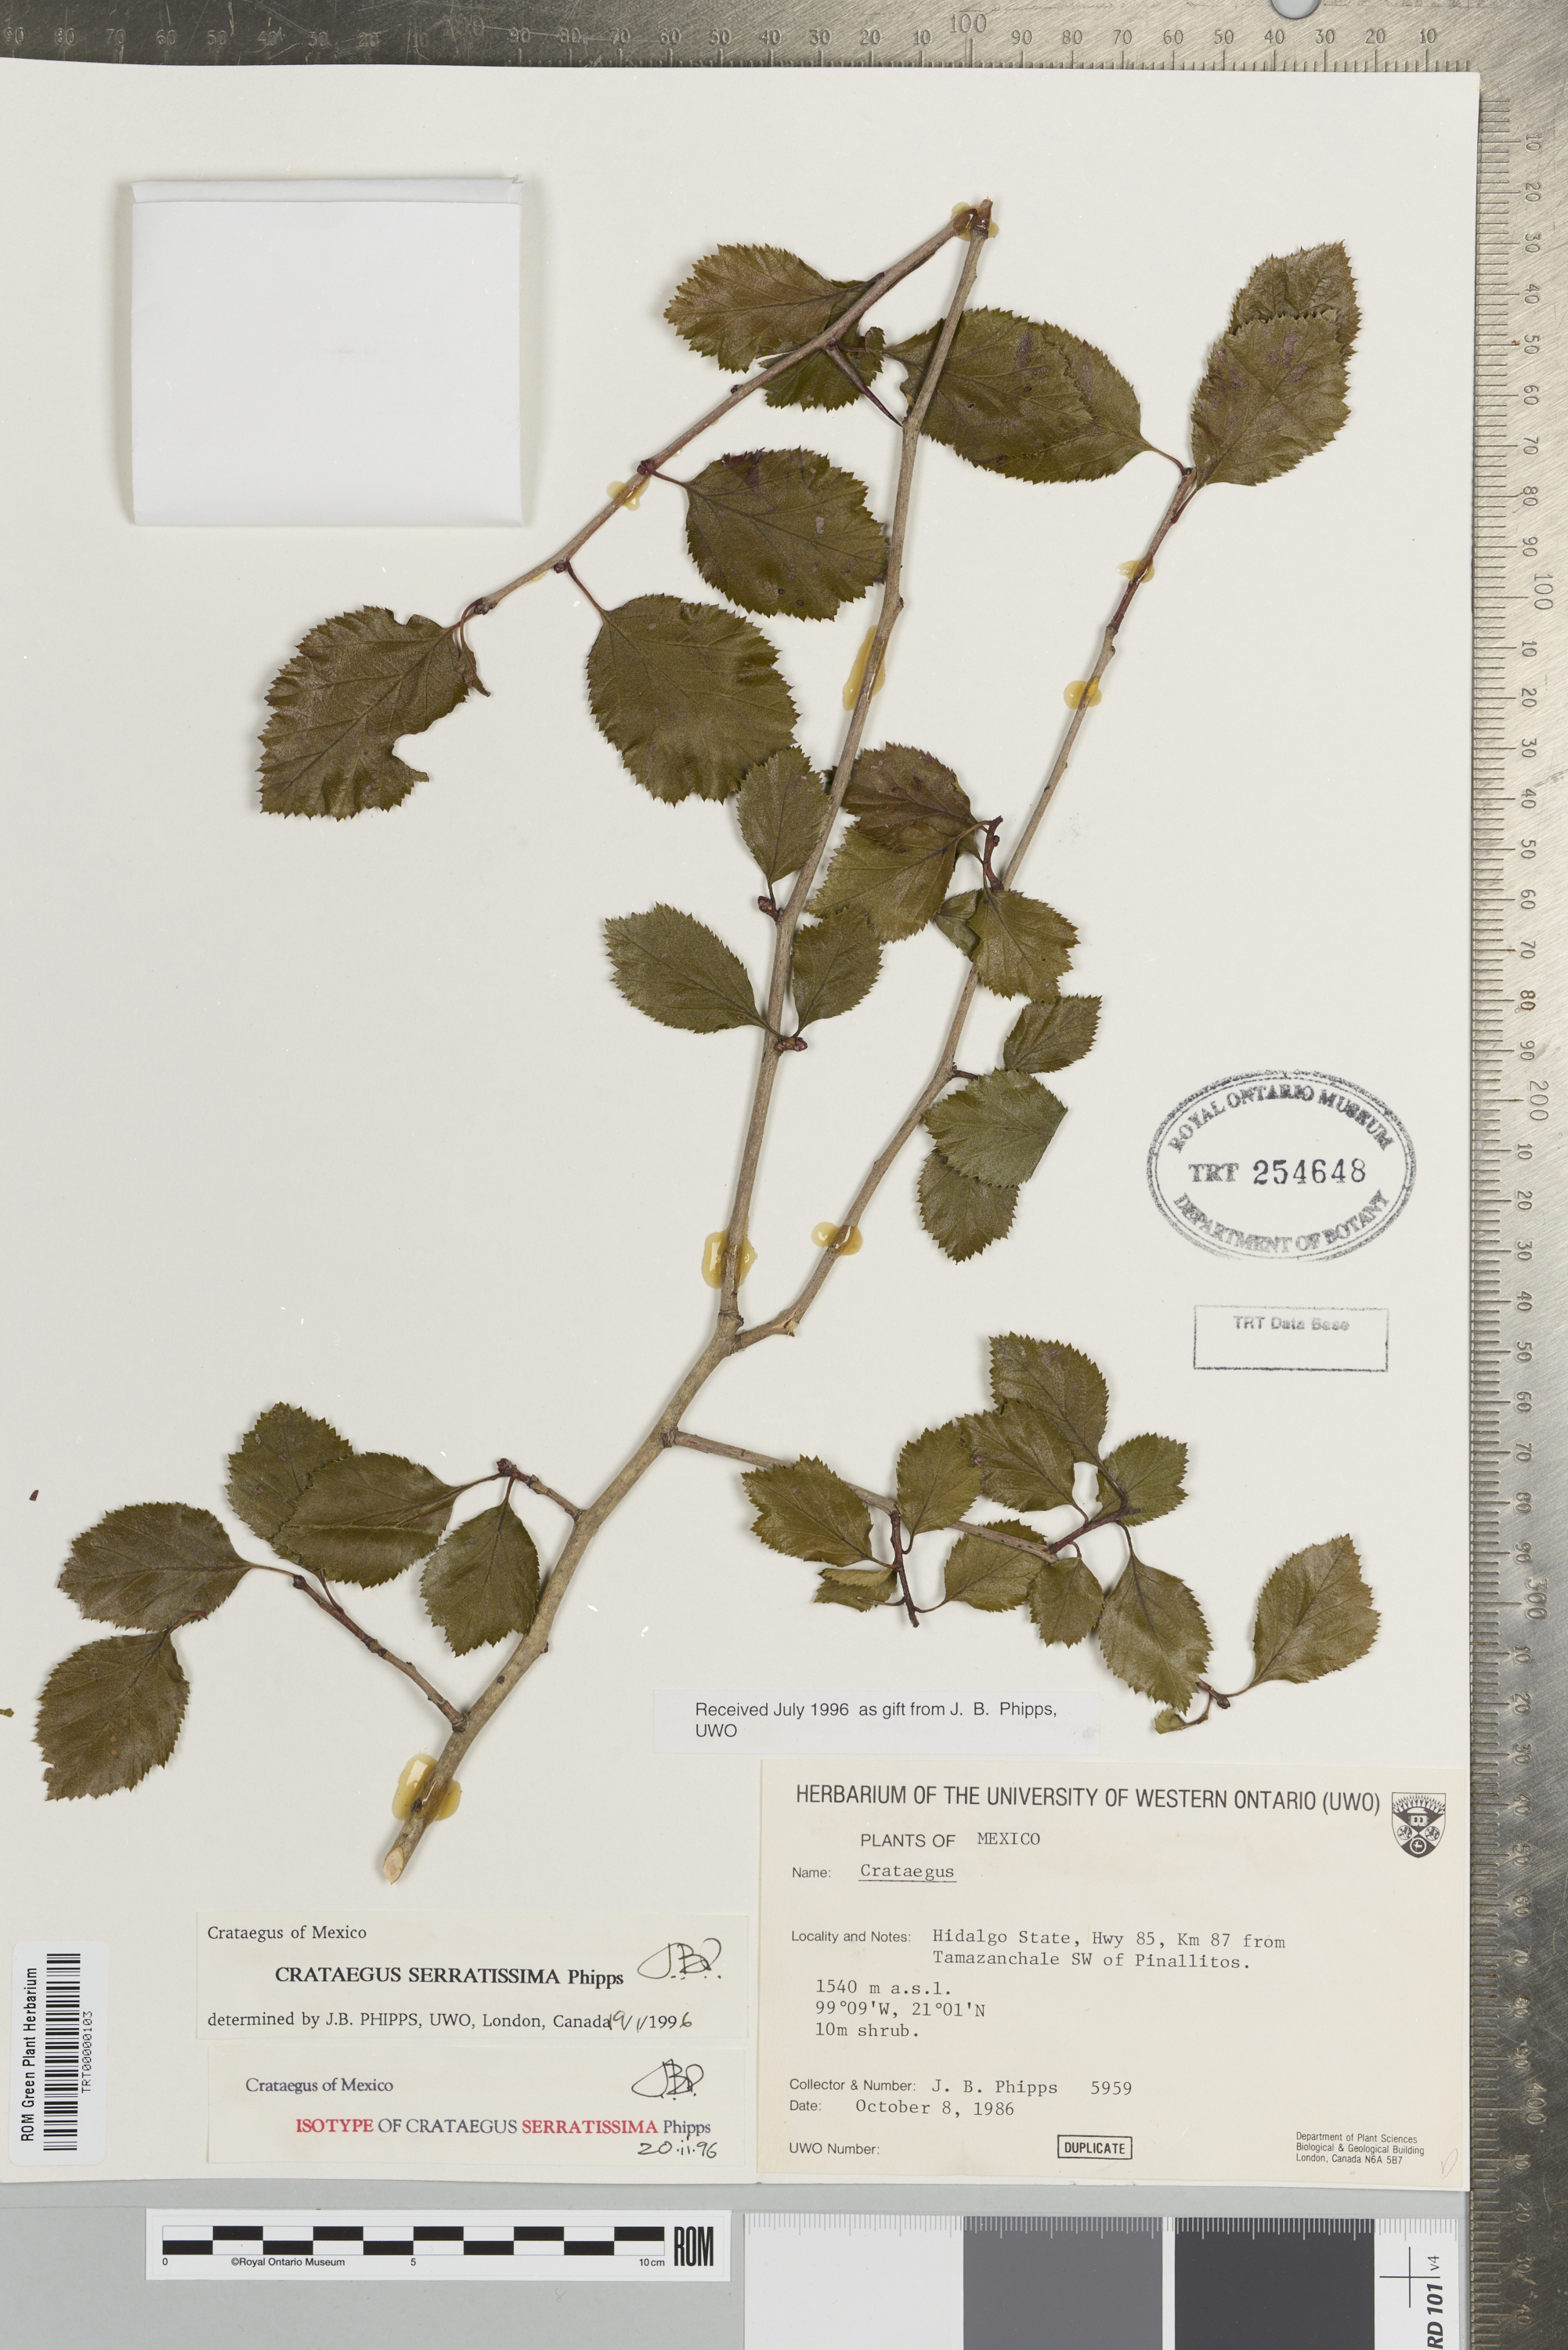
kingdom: Plantae
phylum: Tracheophyta
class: Magnoliopsida
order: Rosales
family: Rosaceae
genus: Crataegus
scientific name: Crataegus serratissima
